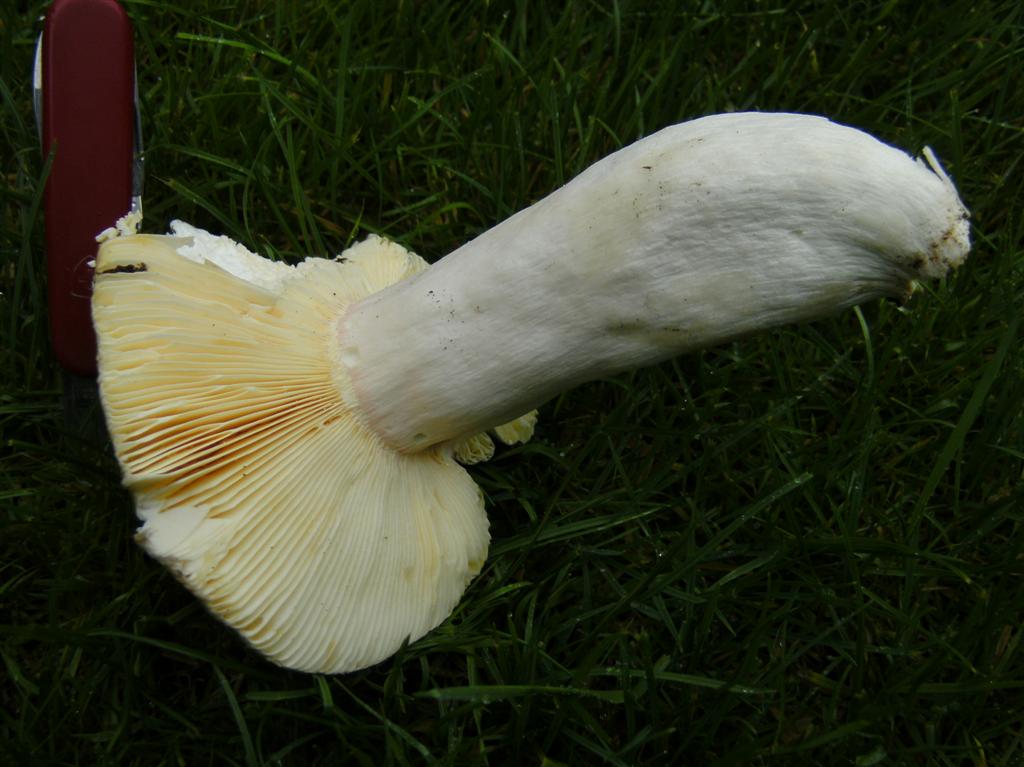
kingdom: Fungi
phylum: Basidiomycota
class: Agaricomycetes
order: Russulales
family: Russulaceae
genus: Russula
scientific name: Russula olivacea
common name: stor skørhat
